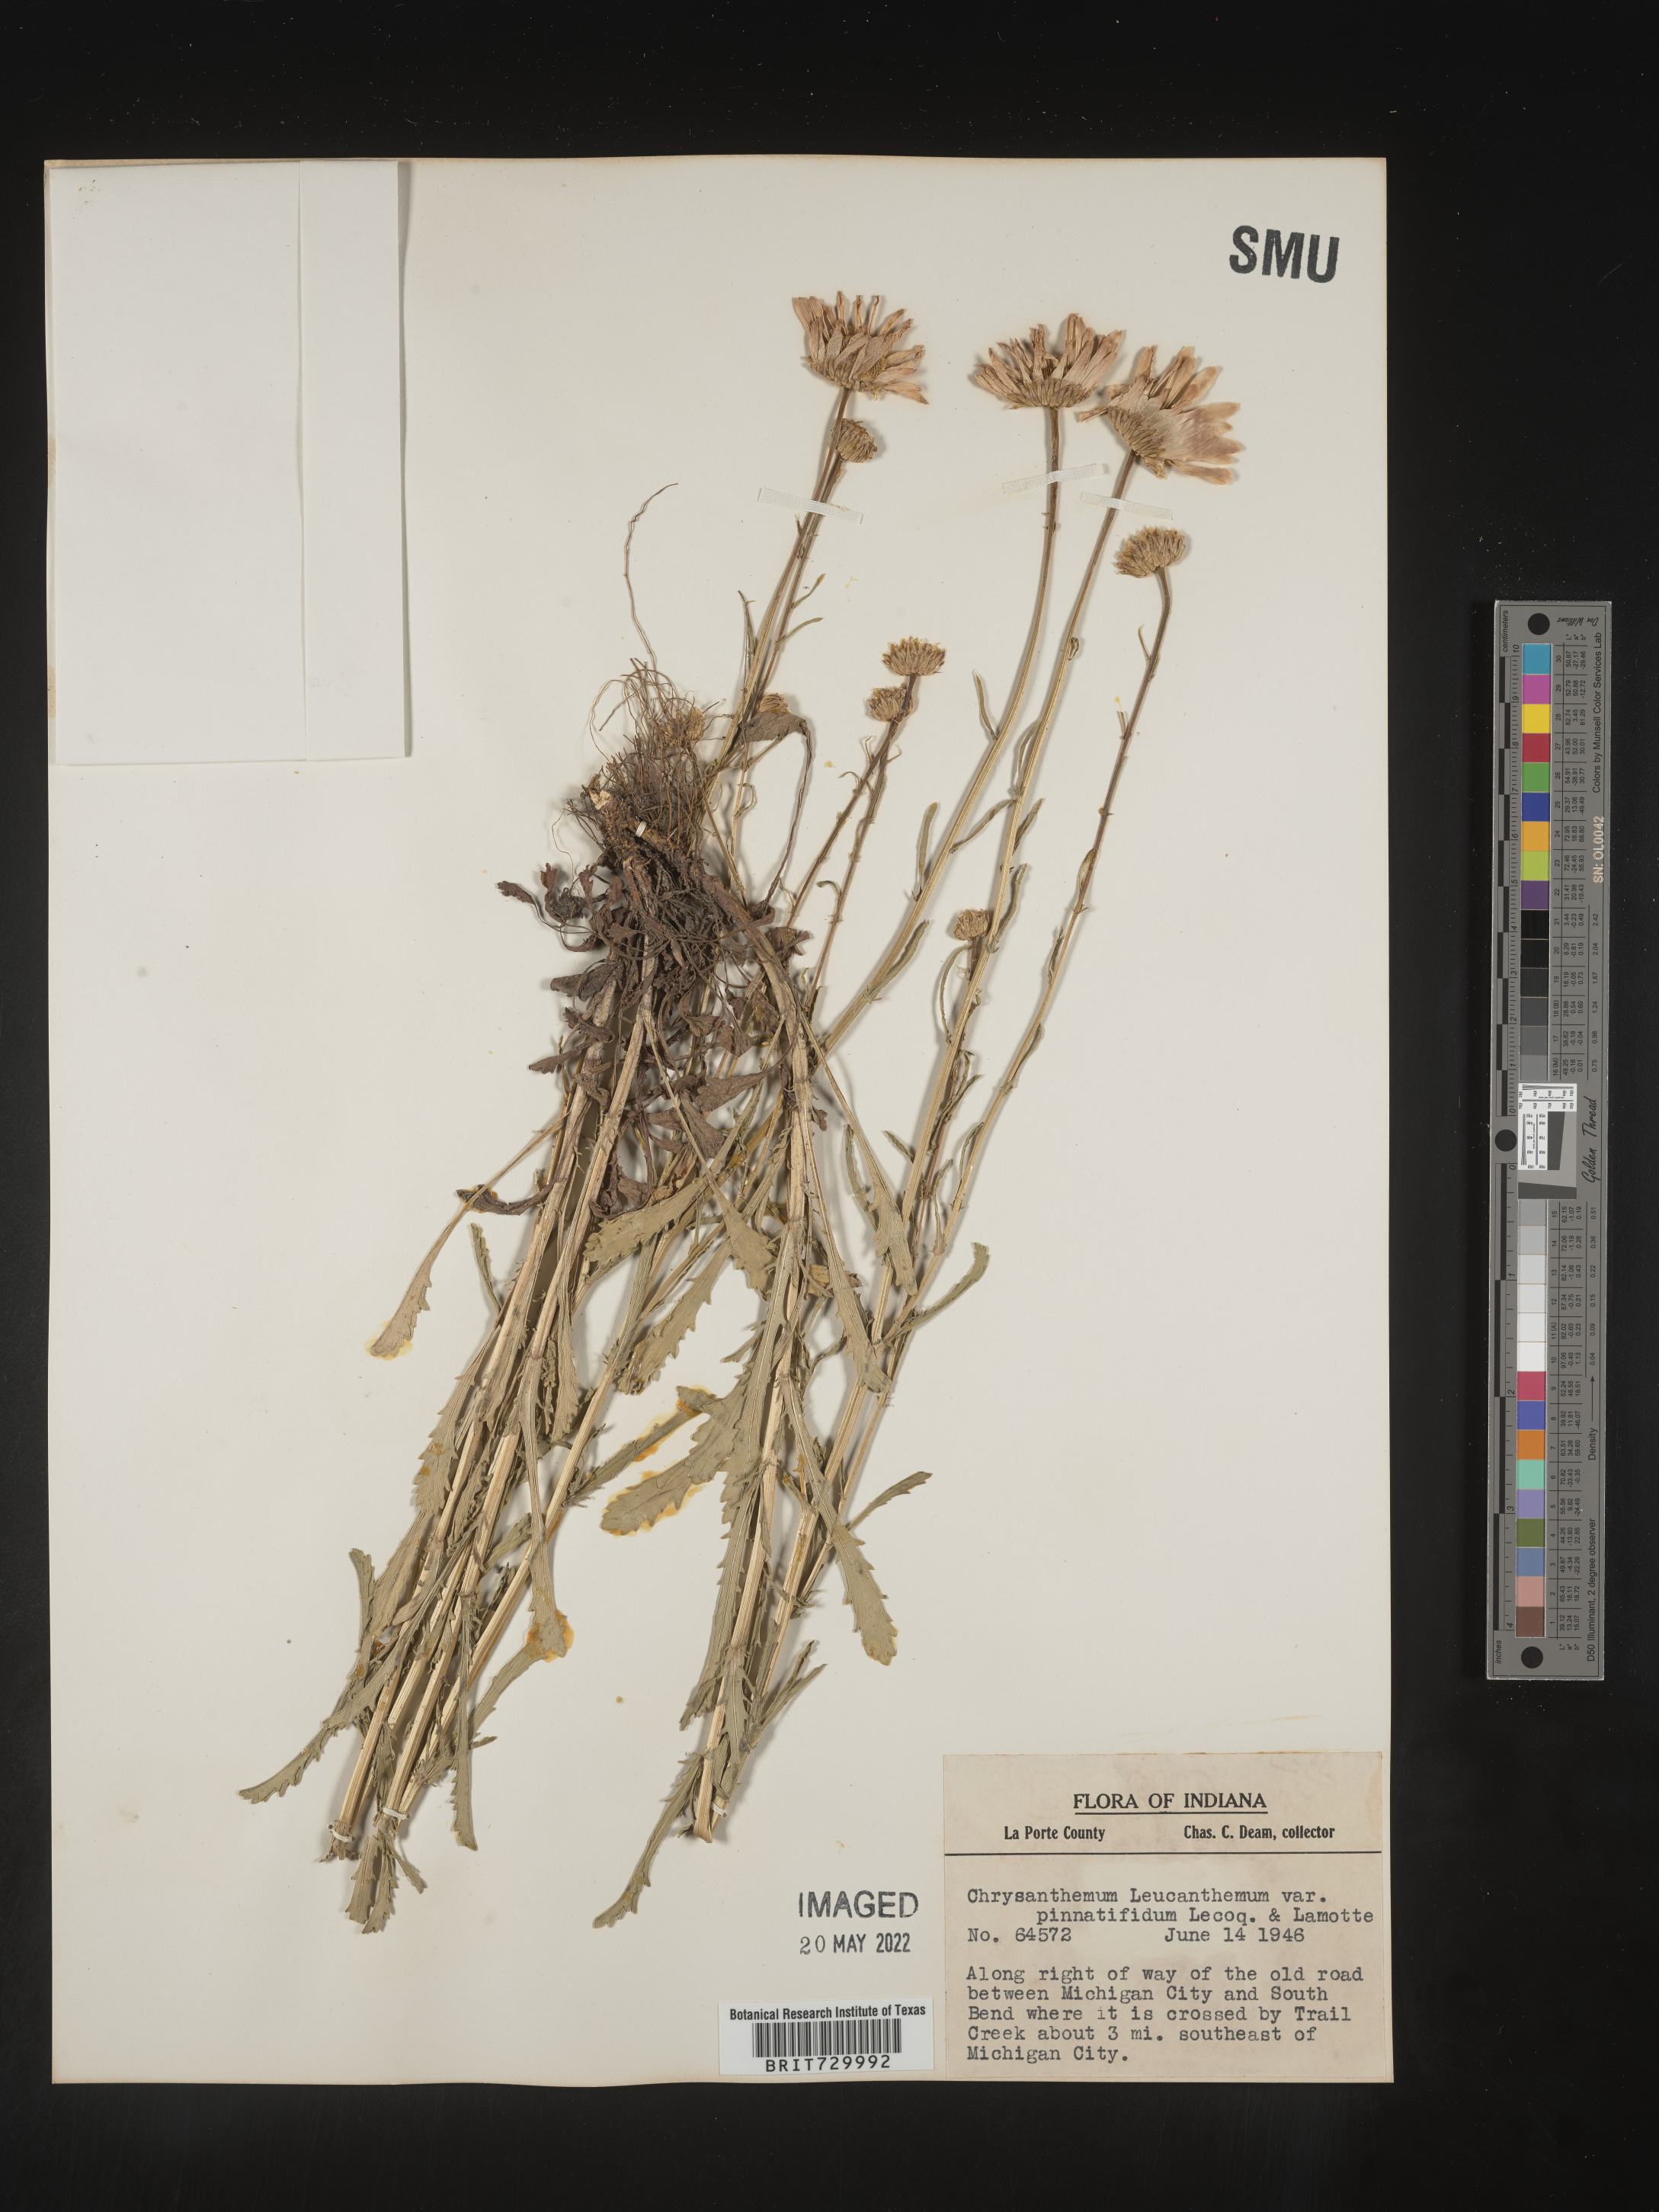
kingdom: Plantae
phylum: Tracheophyta
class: Magnoliopsida
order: Asterales
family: Asteraceae
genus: Leucanthemum
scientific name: Leucanthemum vulgare
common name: Oxeye daisy
